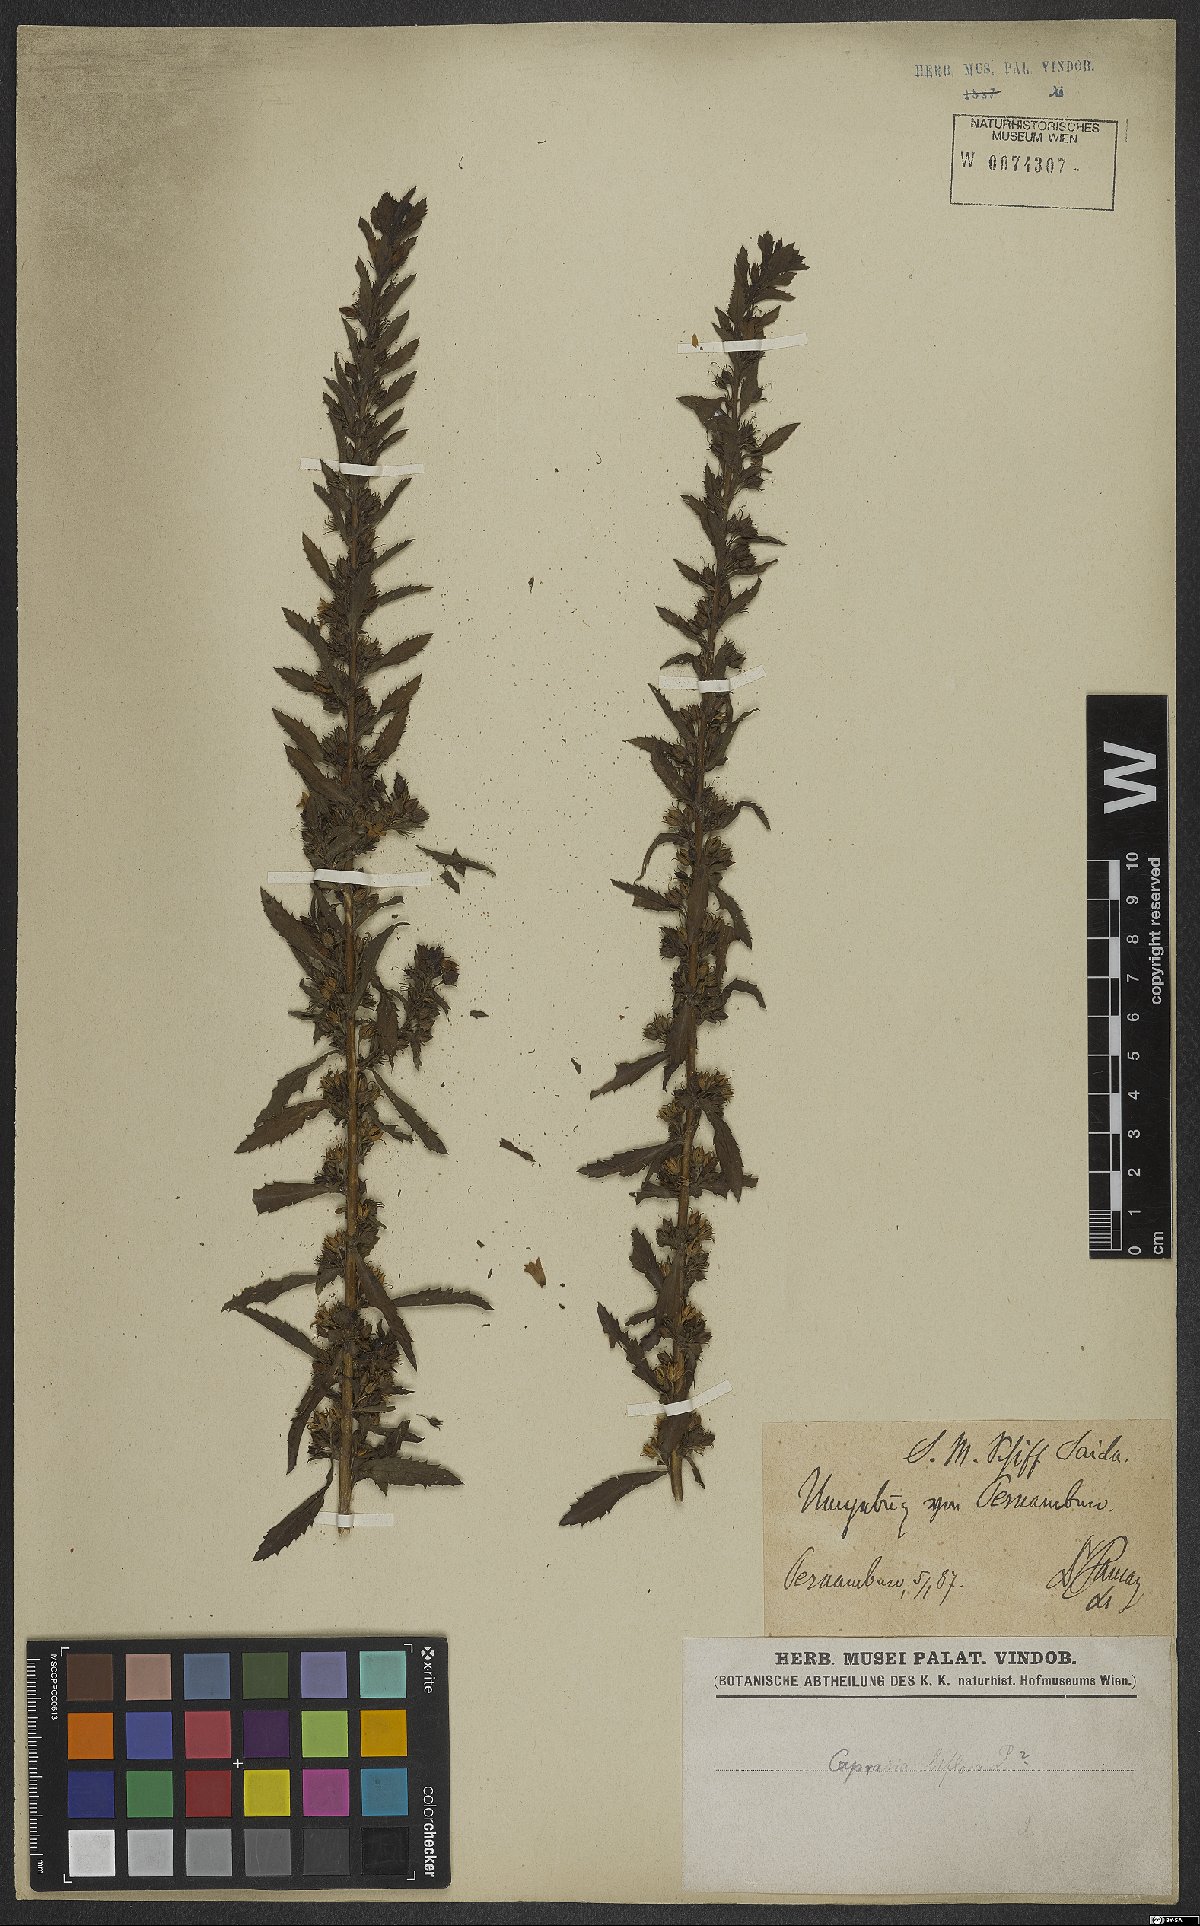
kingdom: Plantae
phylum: Tracheophyta
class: Magnoliopsida
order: Lamiales
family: Scrophulariaceae
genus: Capraria
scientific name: Capraria biflora
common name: Goatweed
